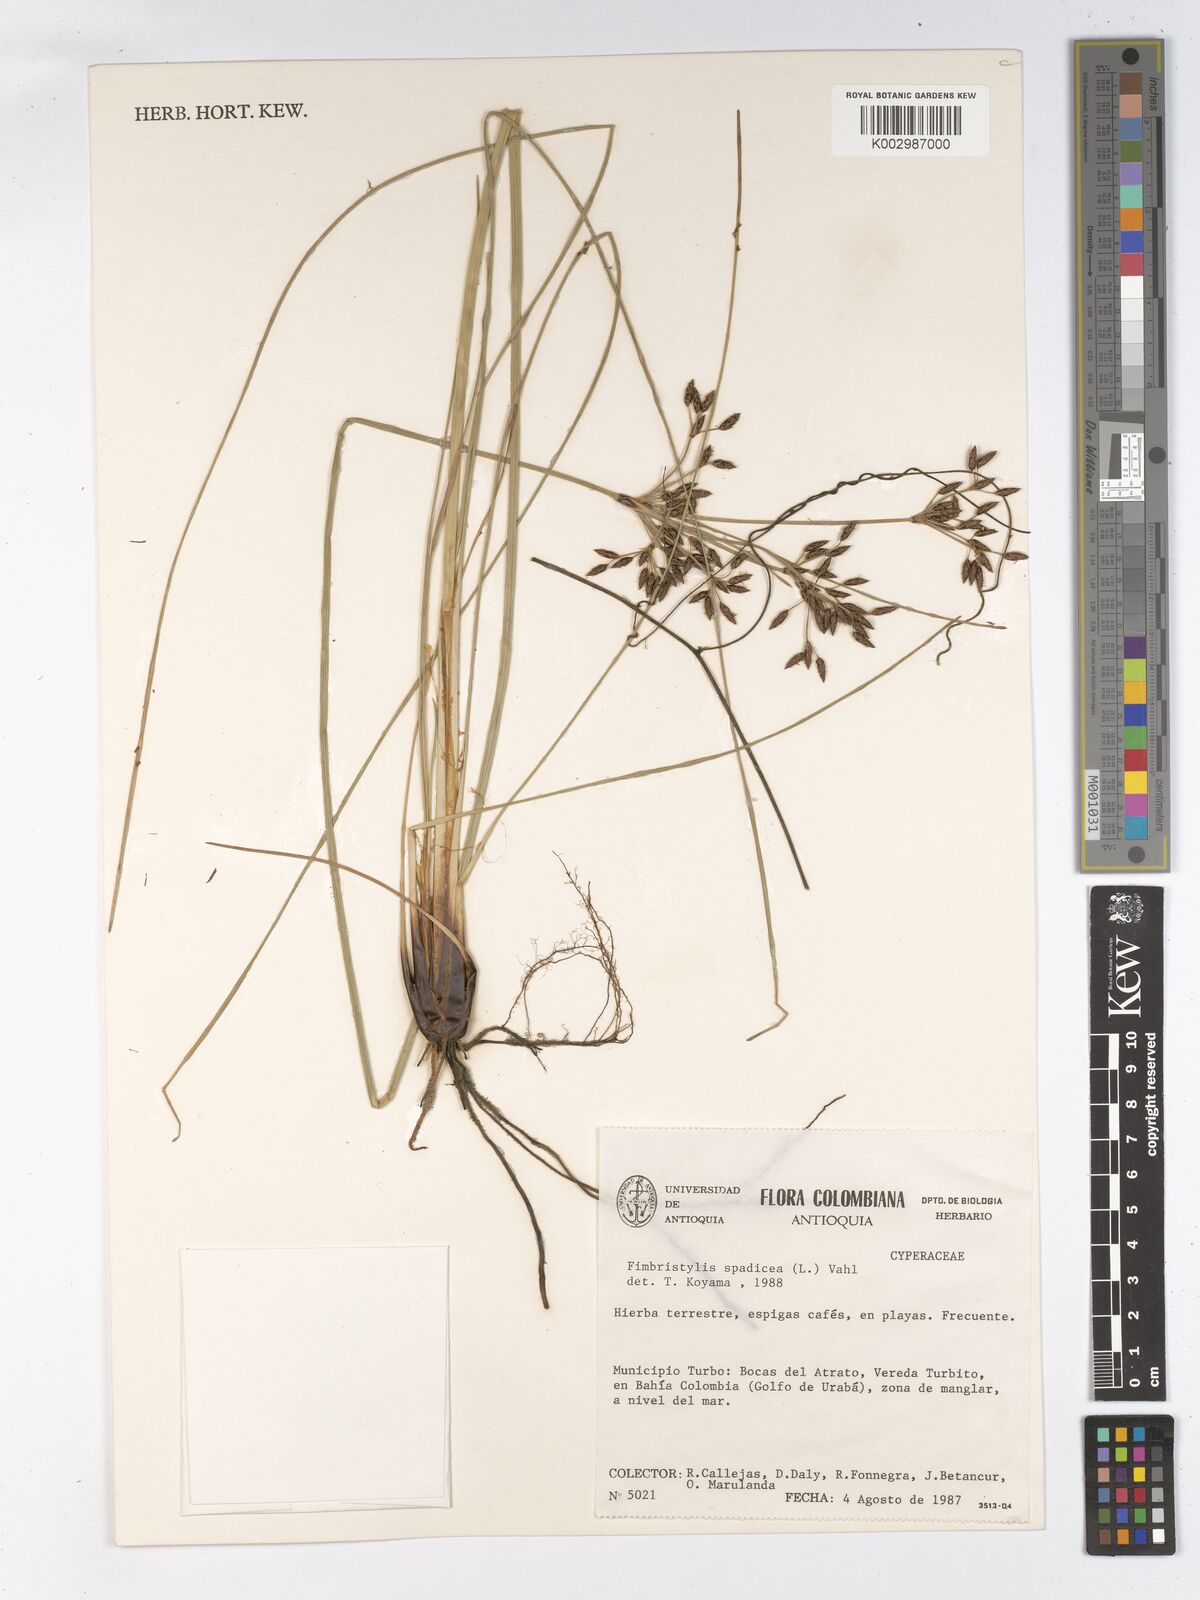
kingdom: Plantae
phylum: Tracheophyta
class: Liliopsida
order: Poales
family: Cyperaceae
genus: Fimbristylis
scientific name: Fimbristylis spadicea
